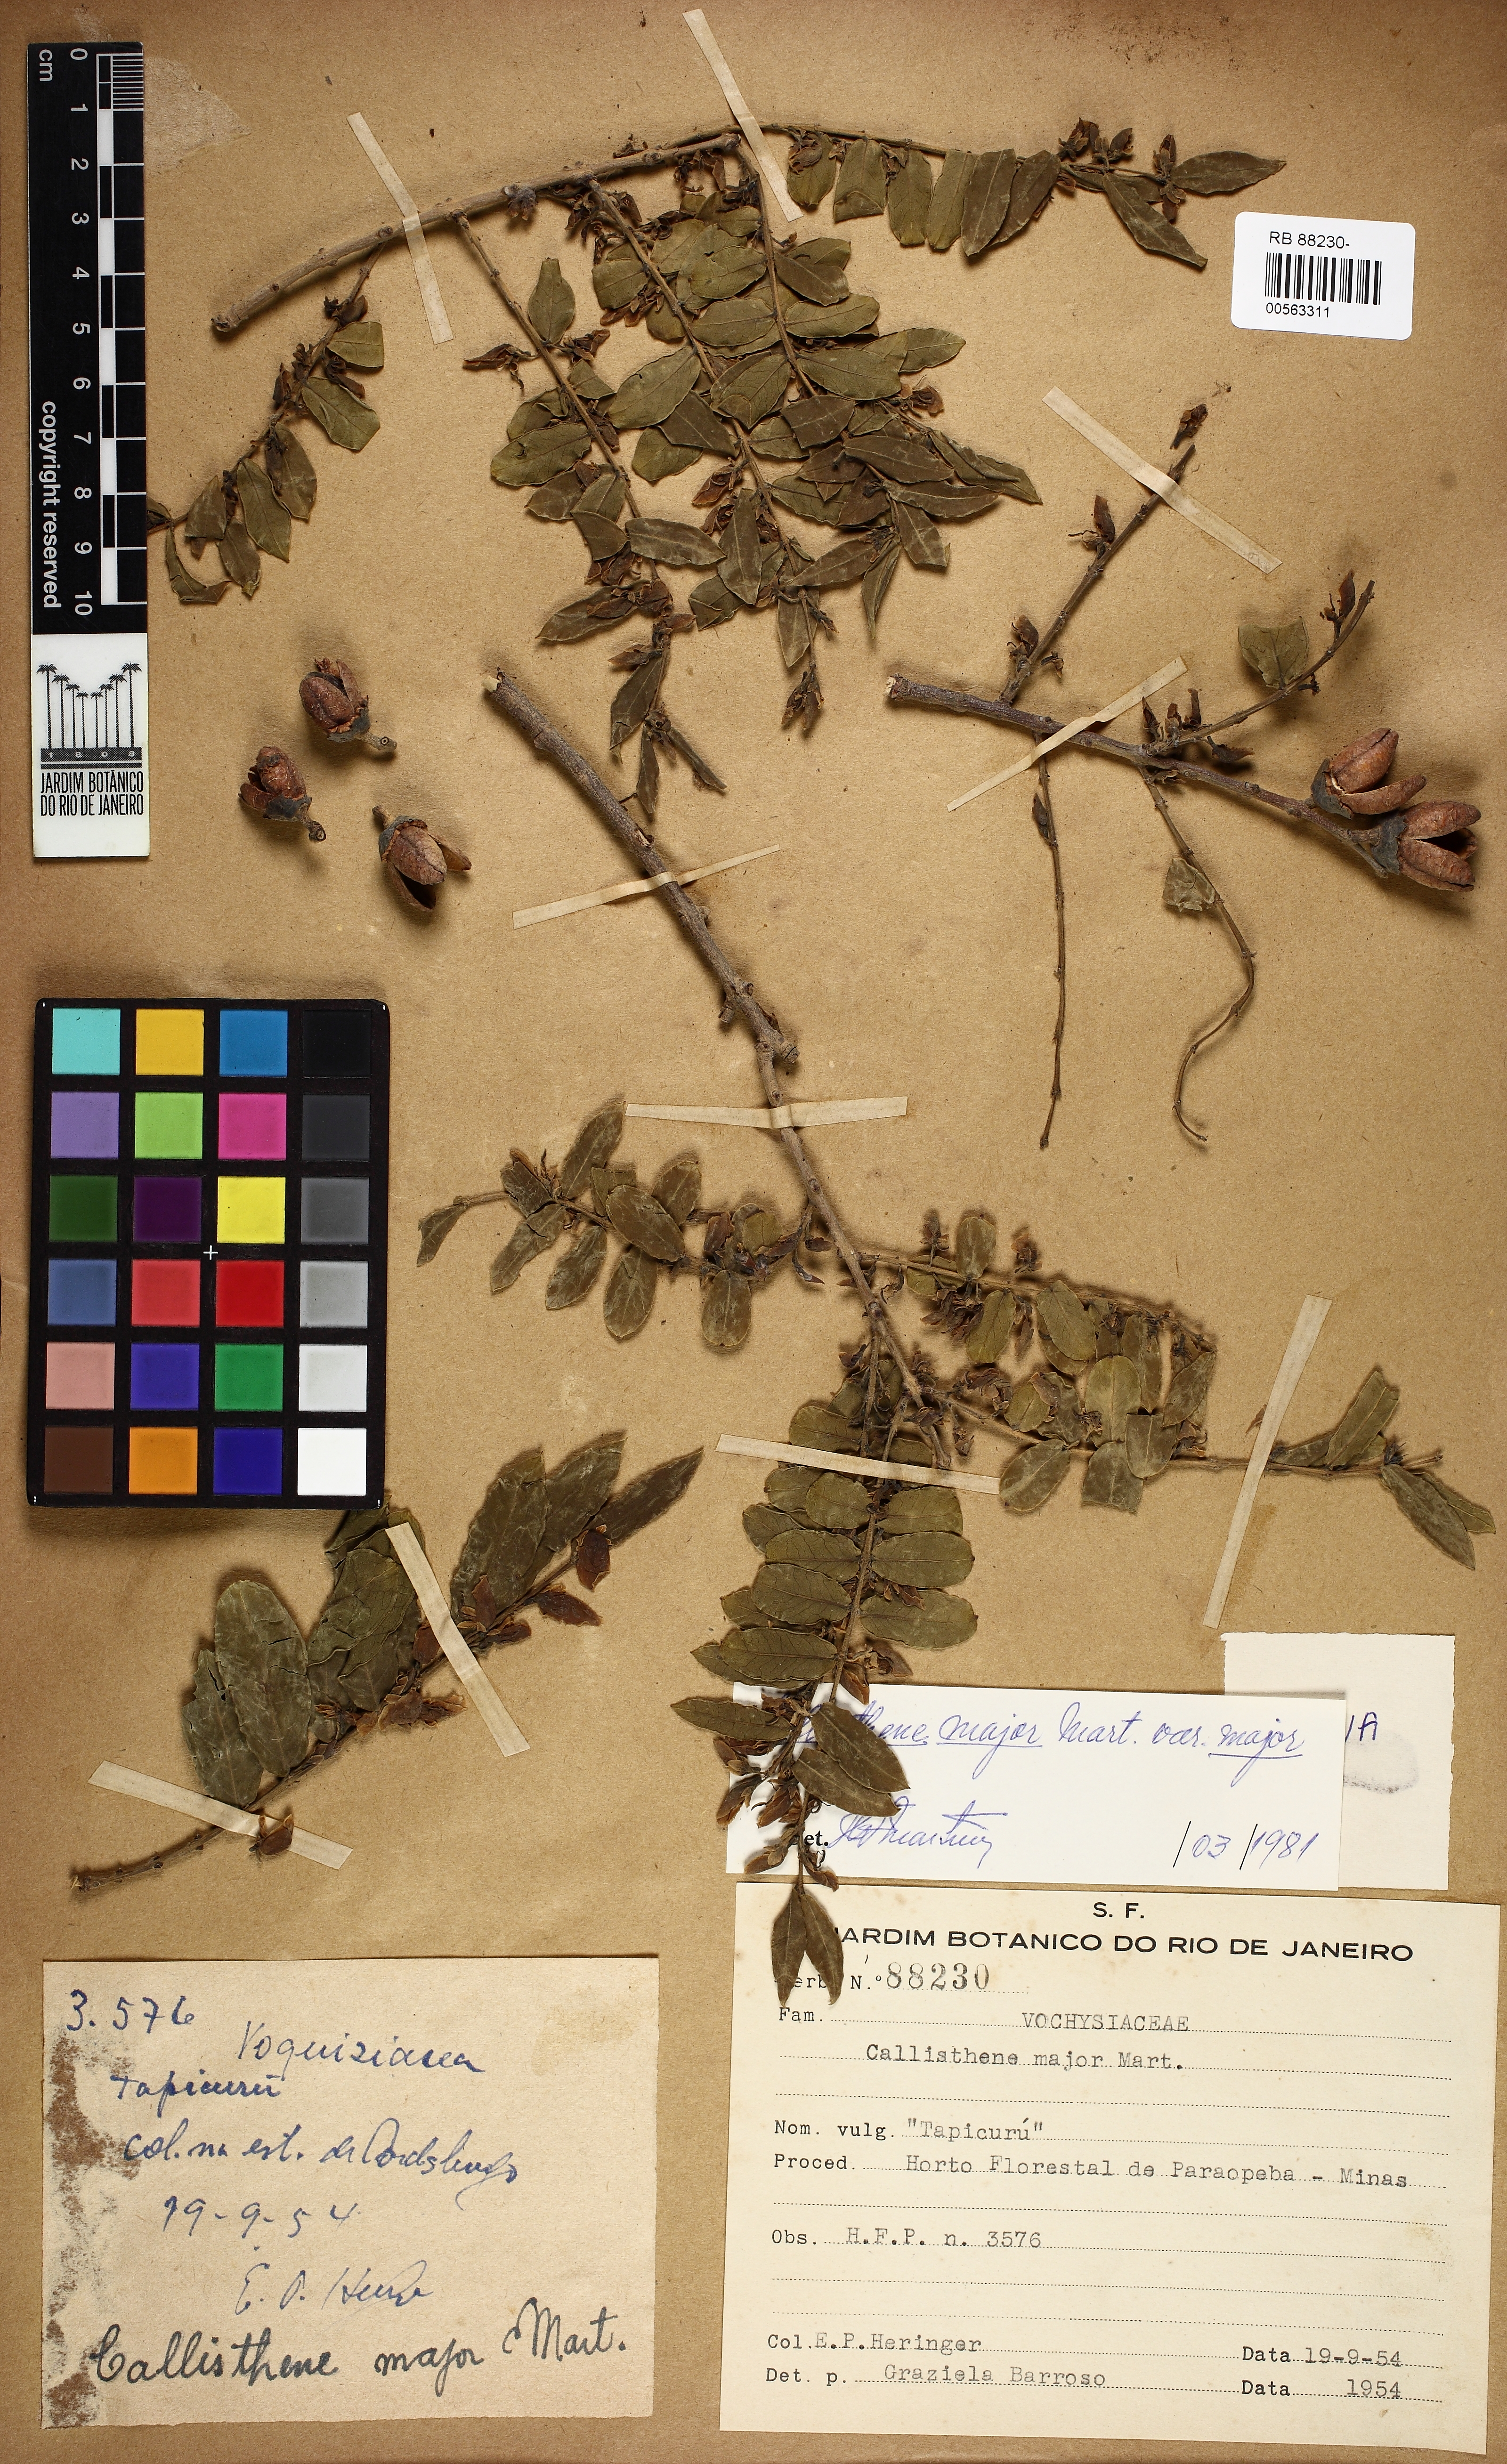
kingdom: Plantae
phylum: Tracheophyta
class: Magnoliopsida
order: Myrtales
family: Vochysiaceae
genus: Callisthene
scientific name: Callisthene major
